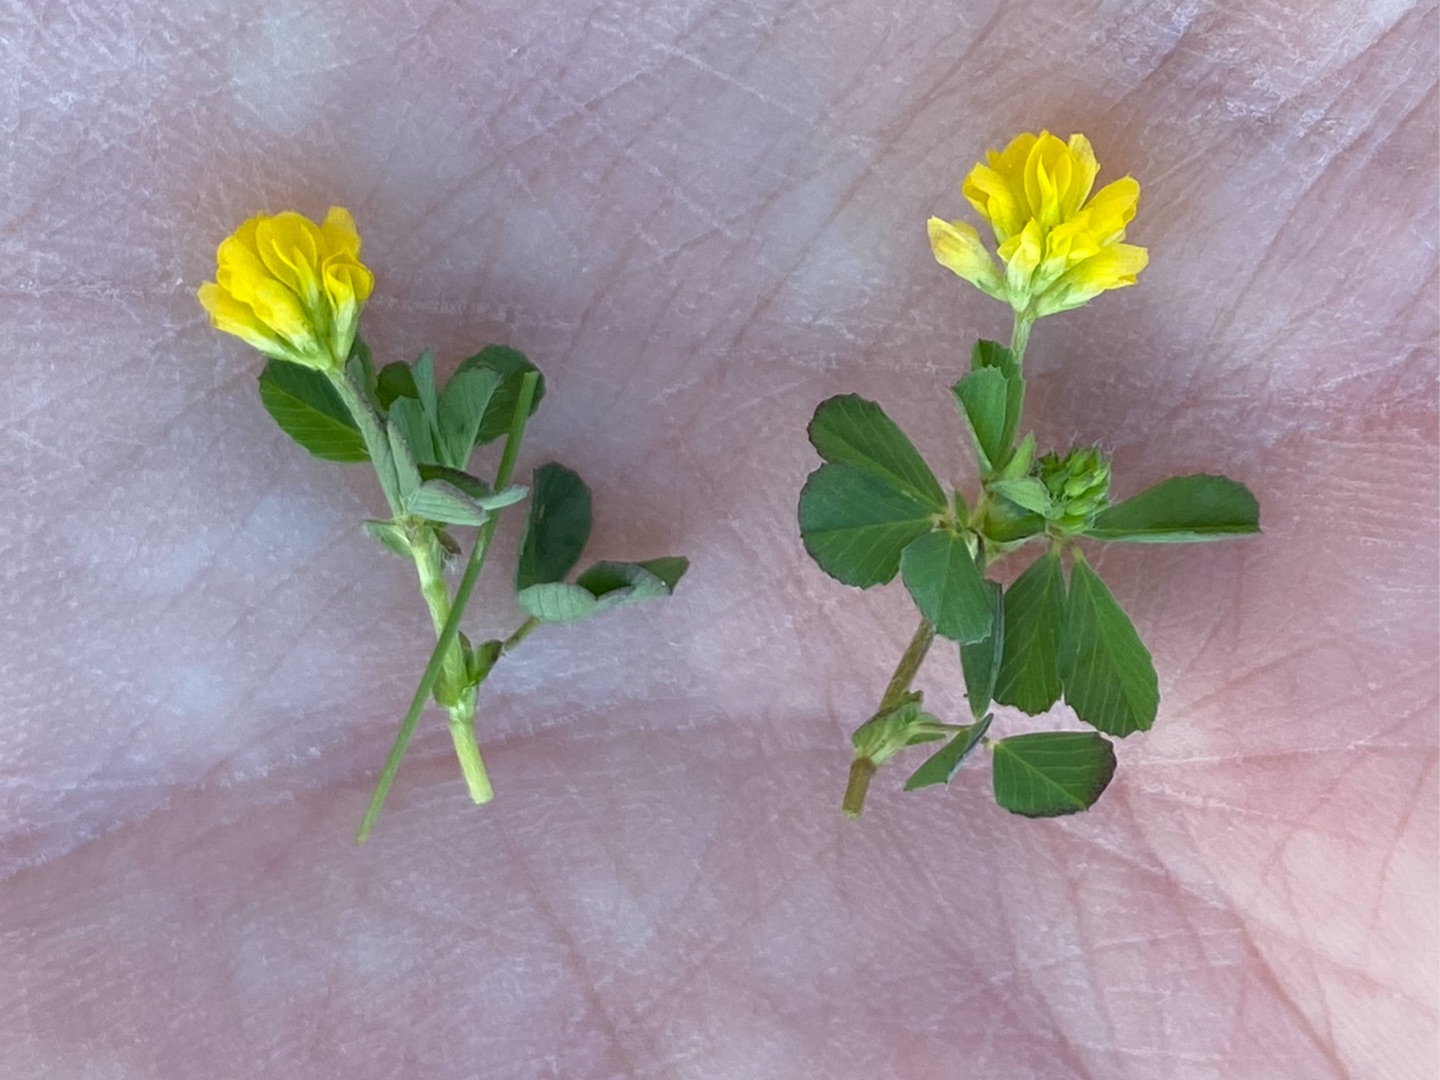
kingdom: Plantae
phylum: Tracheophyta
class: Magnoliopsida
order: Fabales
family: Fabaceae
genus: Trifolium
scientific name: Trifolium dubium
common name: Fin kløver
